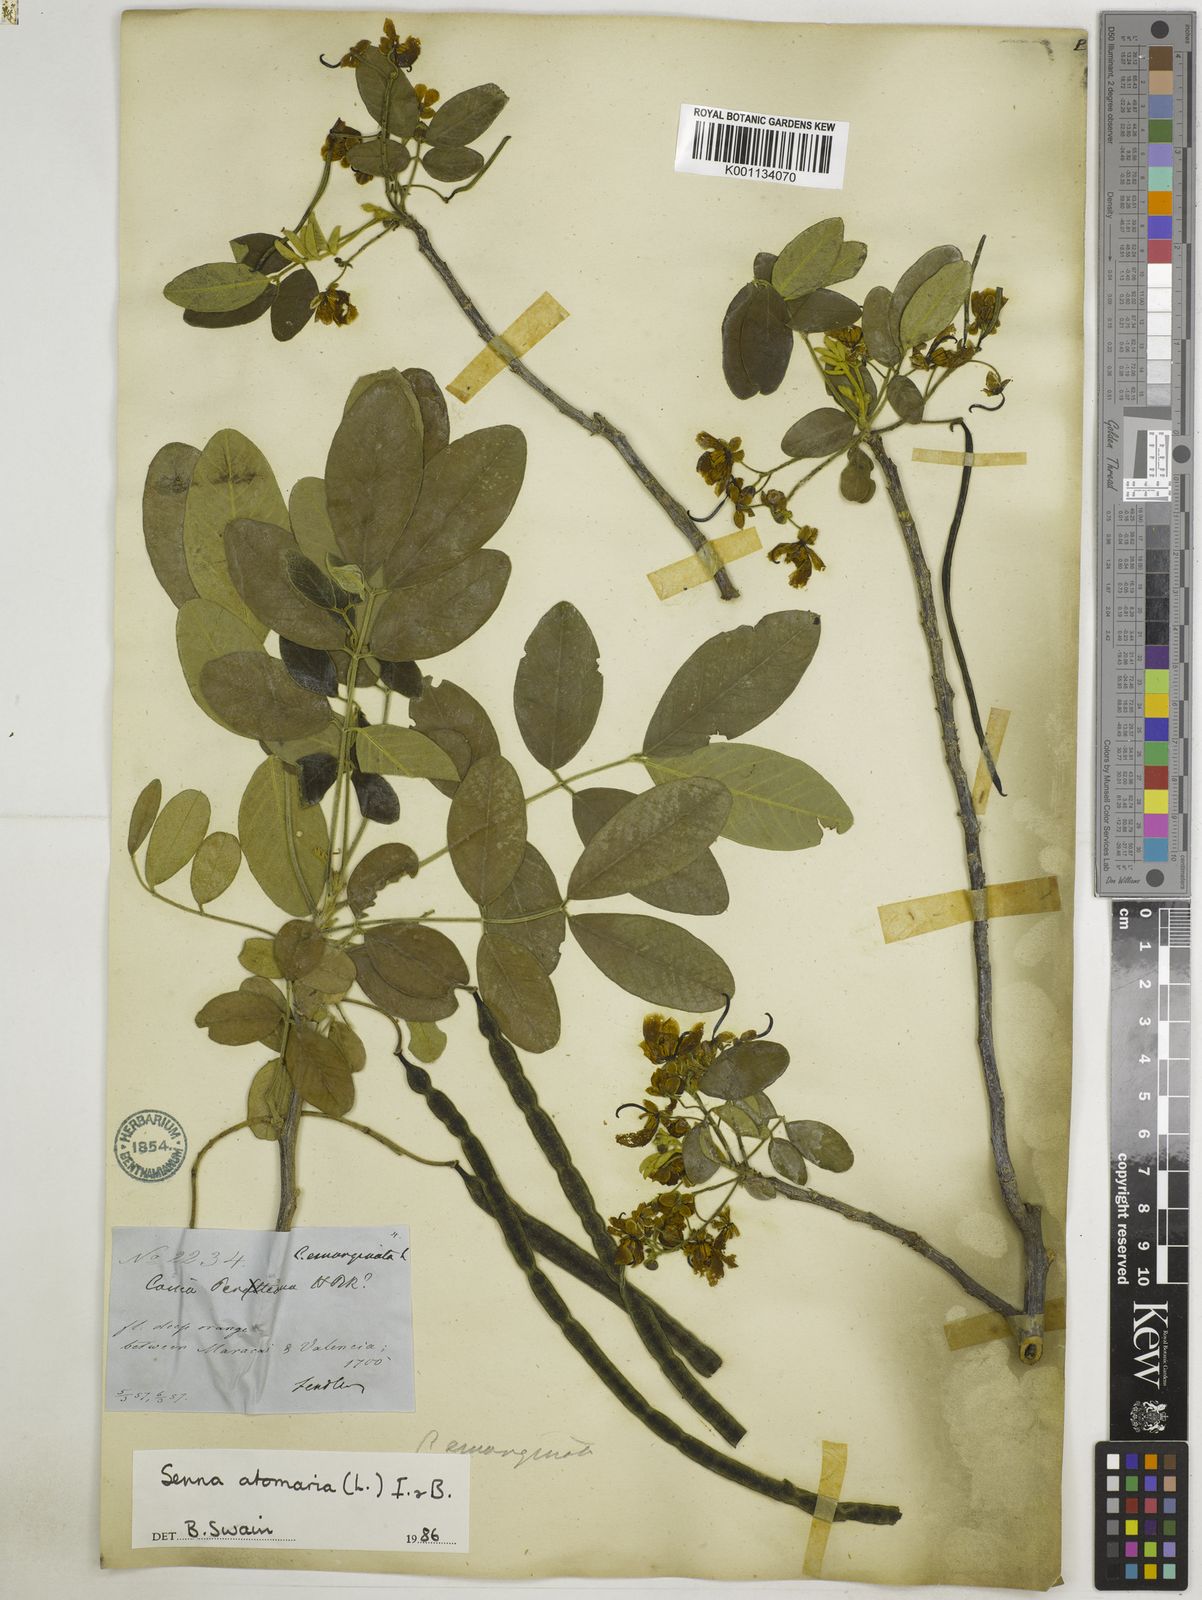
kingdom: Plantae
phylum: Tracheophyta
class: Magnoliopsida
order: Fabales
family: Fabaceae
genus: Senna
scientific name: Senna atomaria
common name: Flor de san jose
